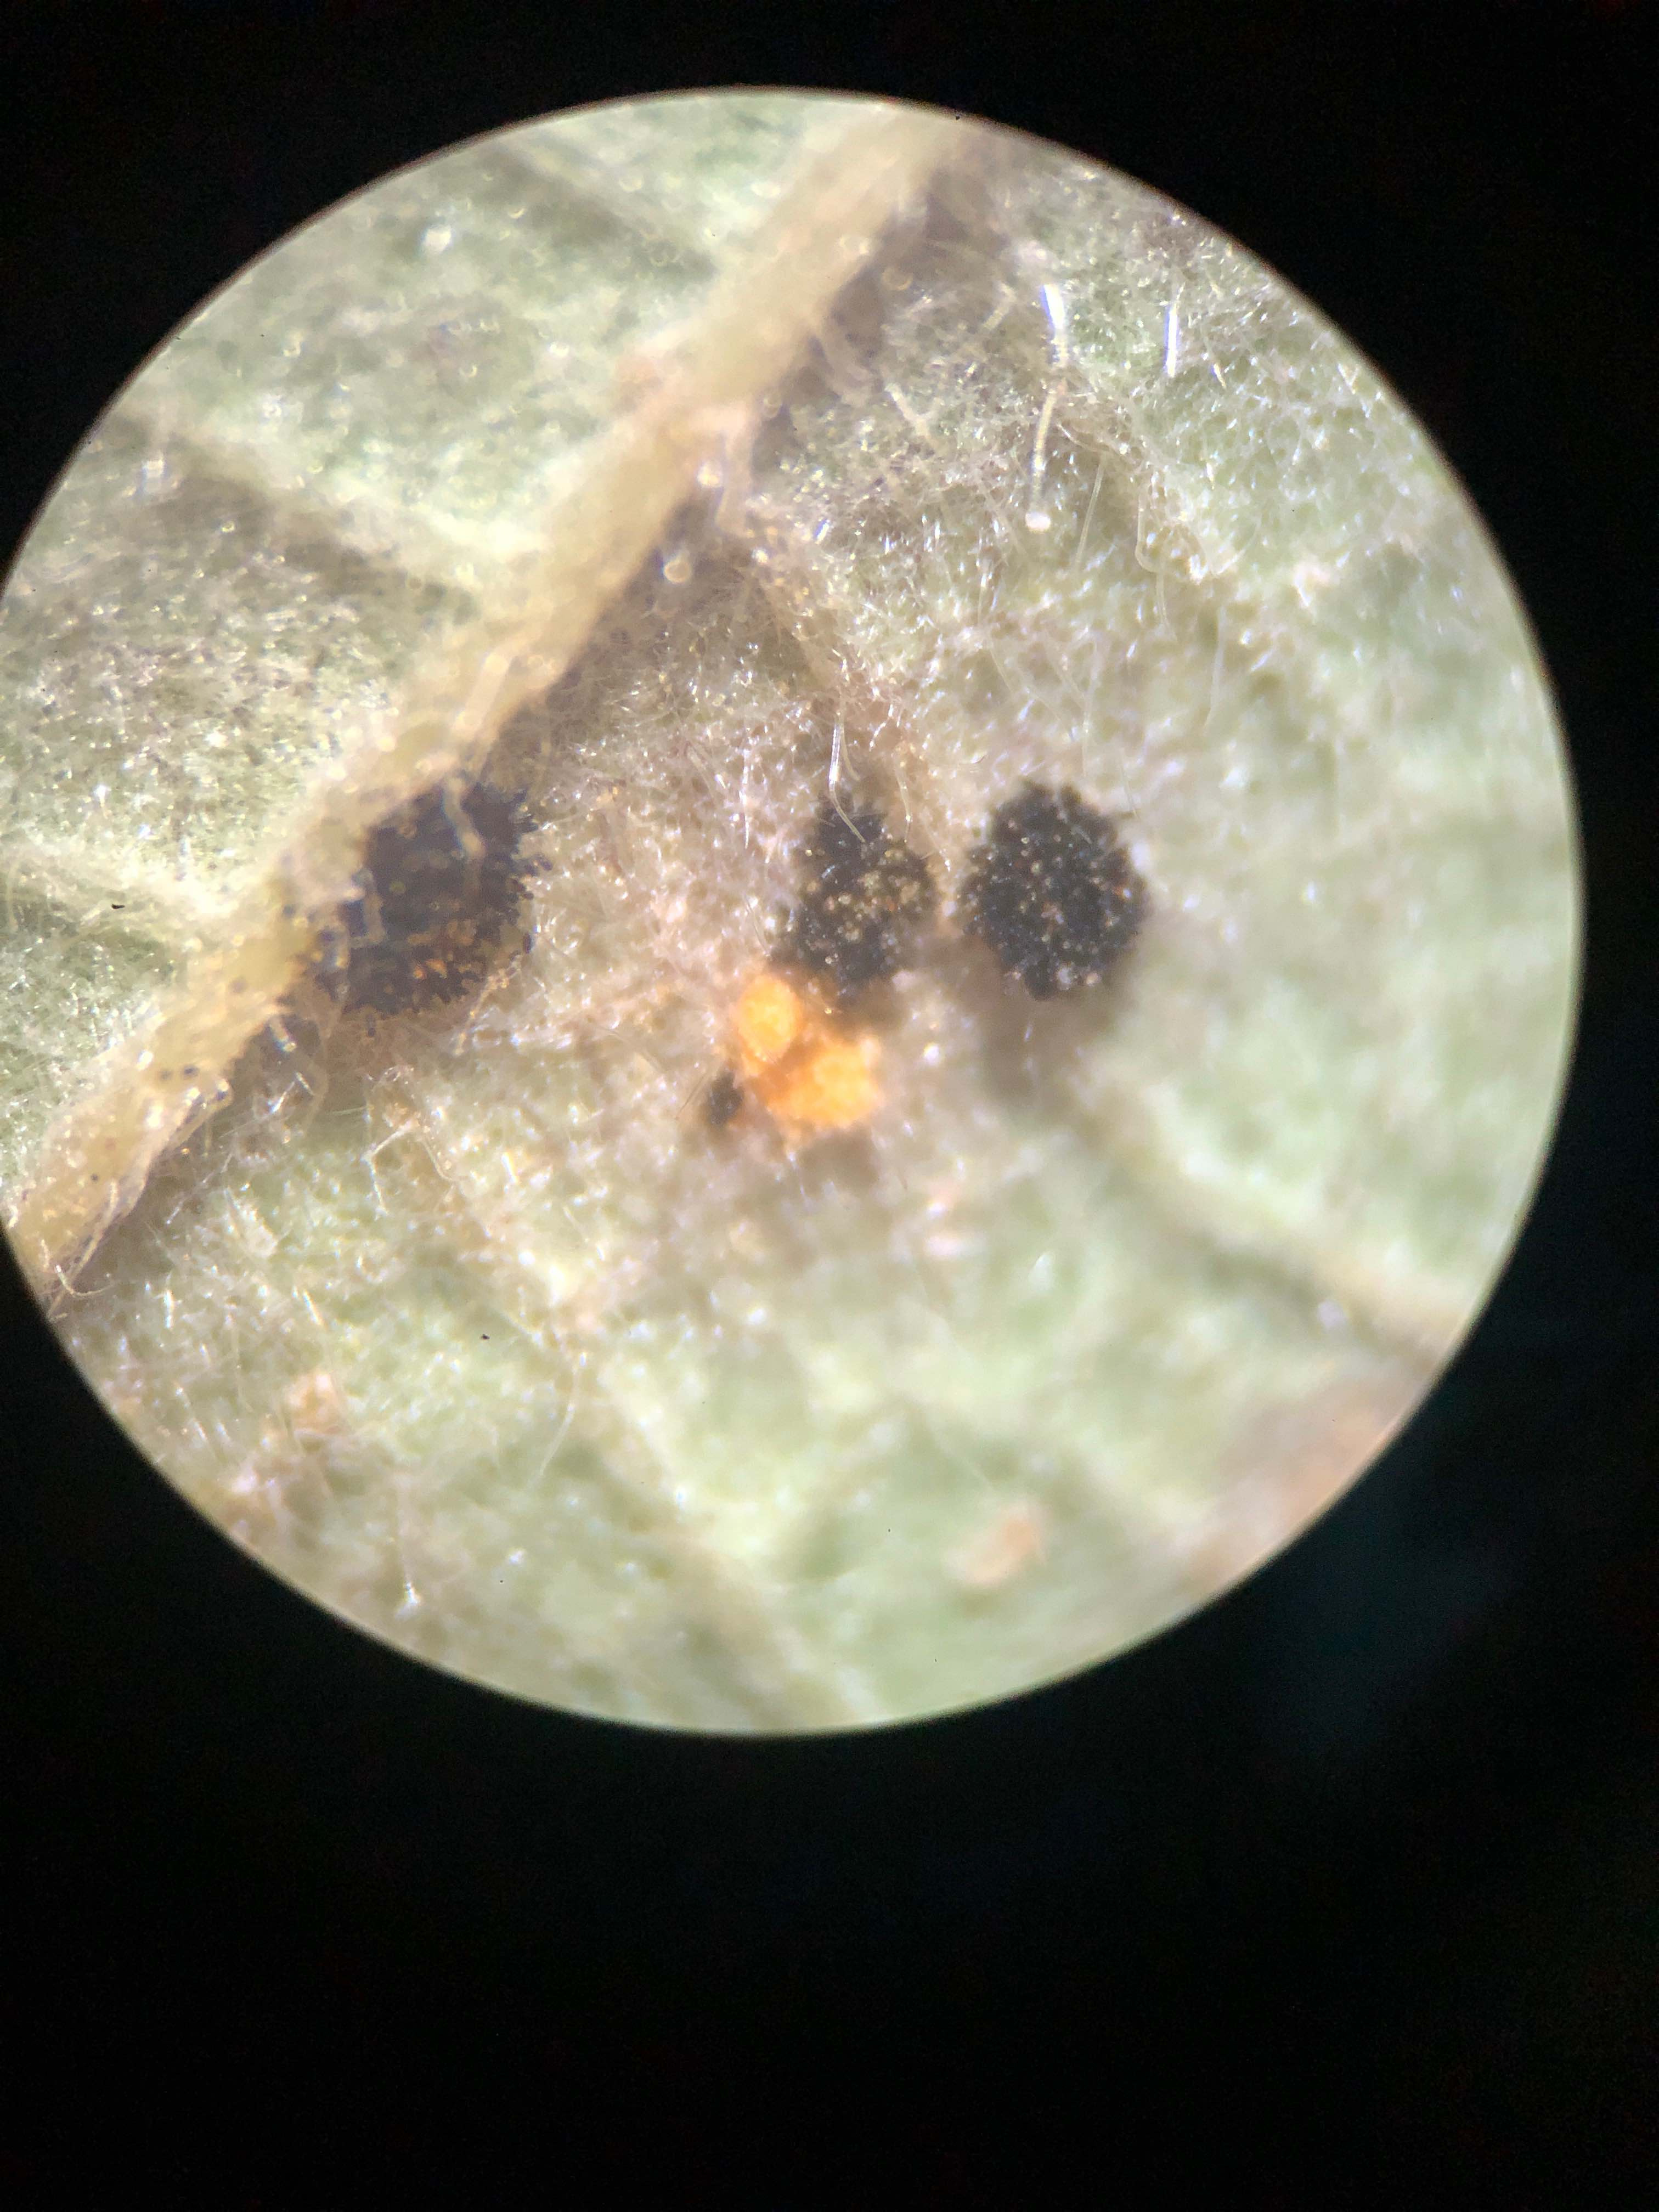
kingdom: Fungi
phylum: Basidiomycota
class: Pucciniomycetes
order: Pucciniales
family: Phragmidiaceae
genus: Phragmidium
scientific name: Phragmidium violaceum
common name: violet flercellerust
